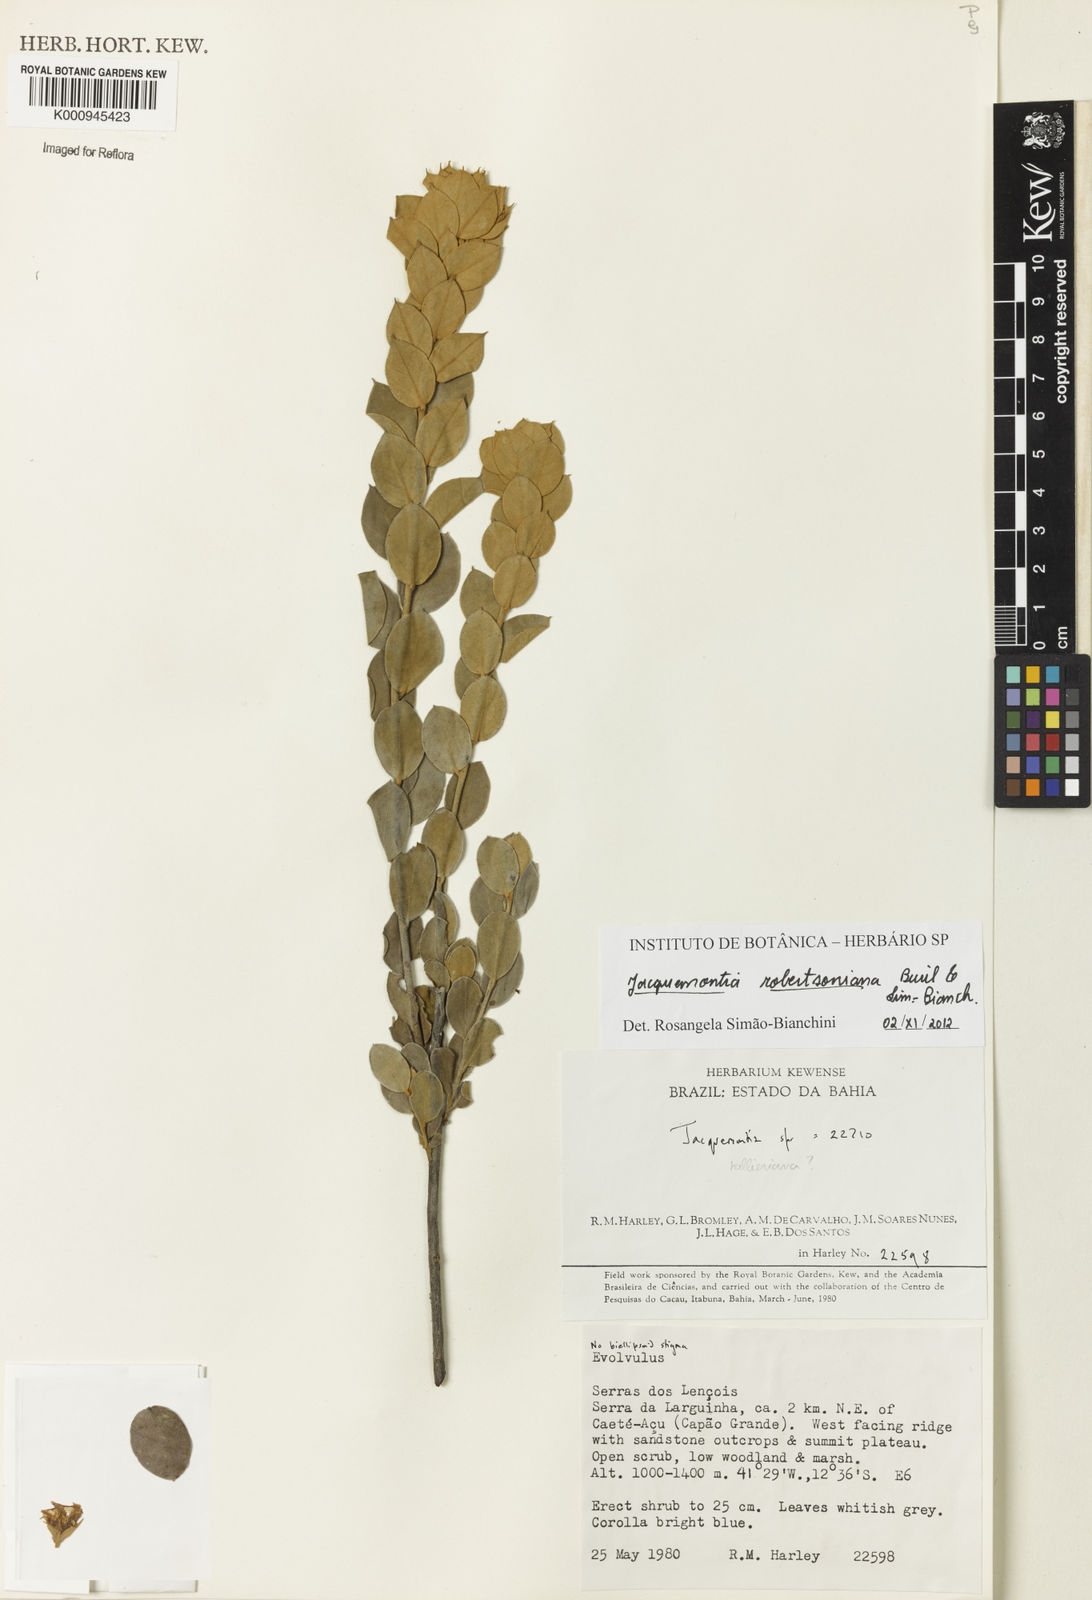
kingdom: Plantae
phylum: Tracheophyta
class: Magnoliopsida
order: Solanales
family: Convolvulaceae
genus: Jacquemontia
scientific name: Jacquemontia
